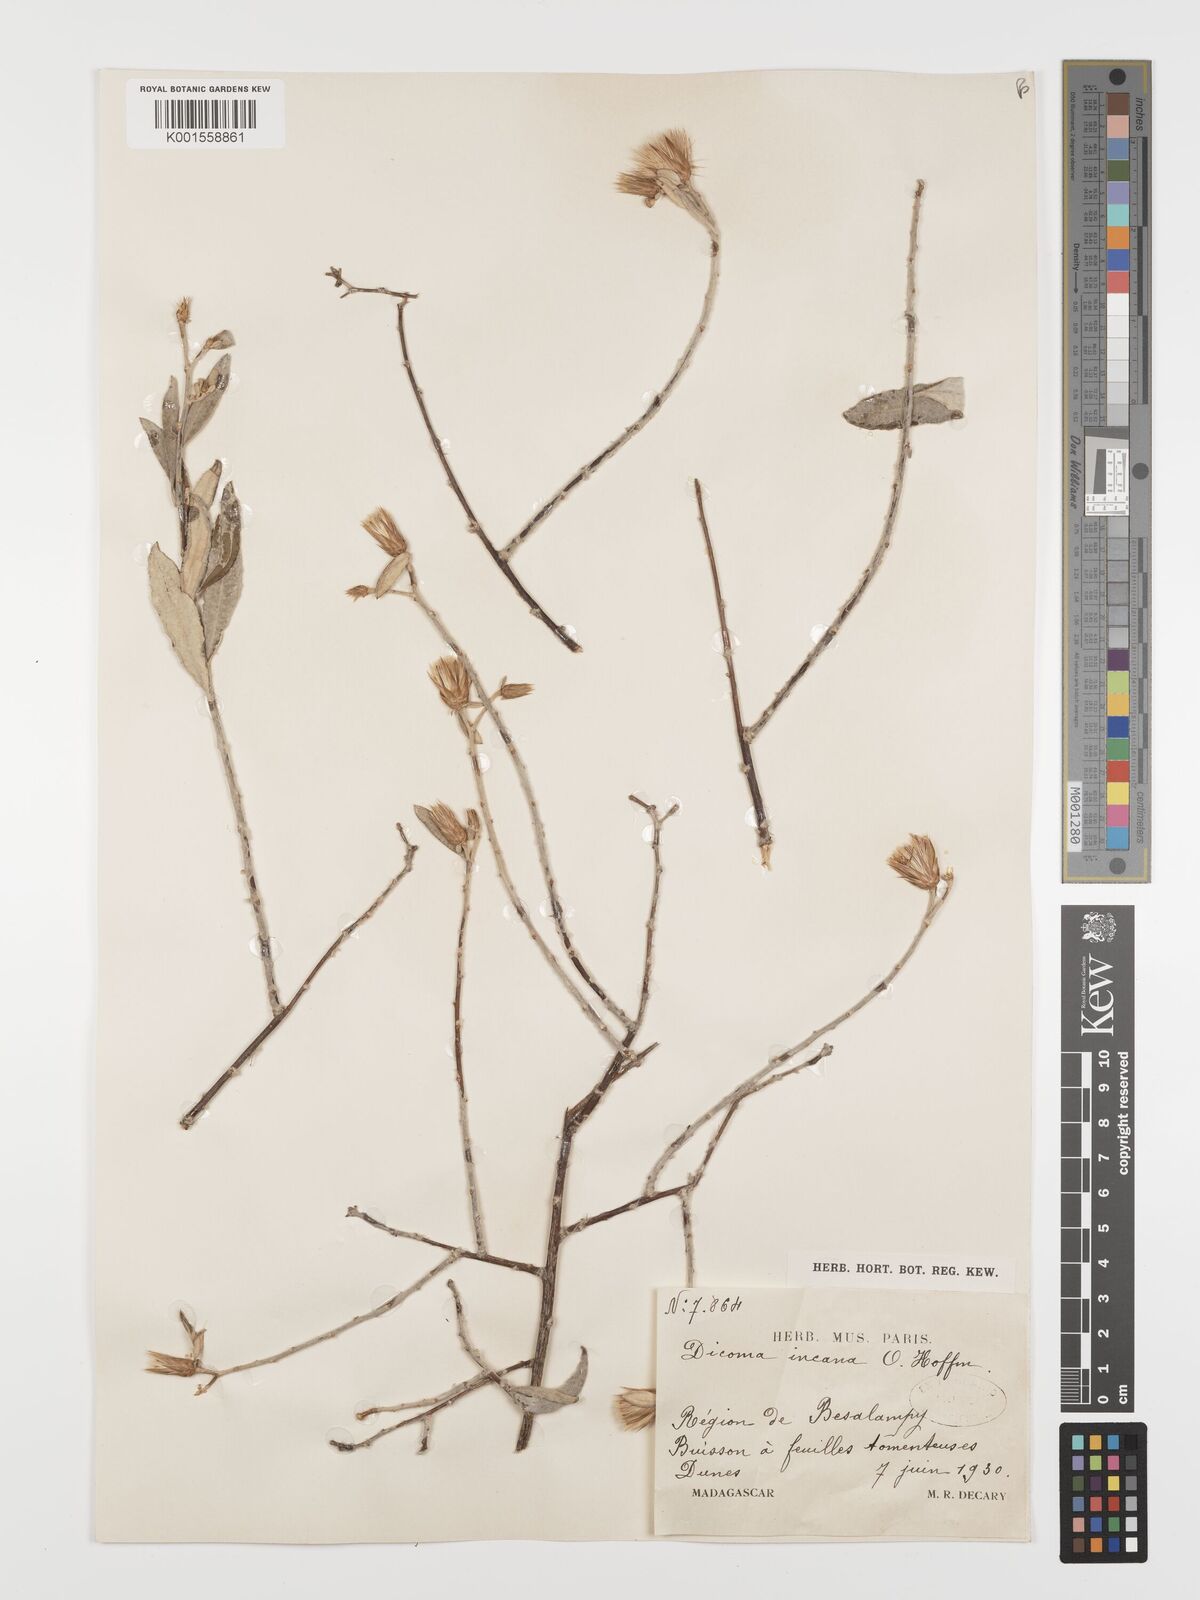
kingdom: Plantae
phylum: Tracheophyta
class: Magnoliopsida
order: Asterales
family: Asteraceae
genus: Dicoma
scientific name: Dicoma incana
